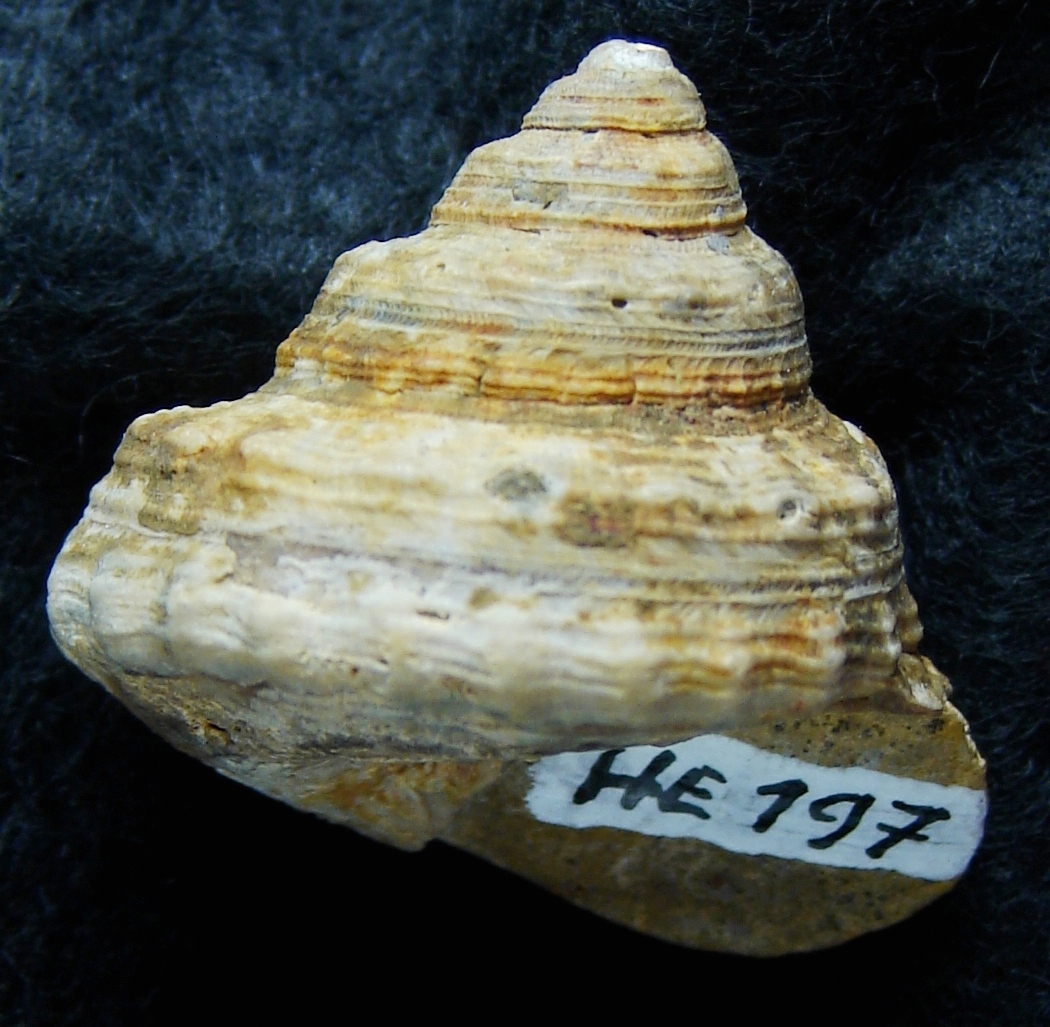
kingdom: Animalia
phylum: Mollusca
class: Gastropoda
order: Pleurotomariida
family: Pleurotomariidae
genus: Pleurotomaria
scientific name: Pleurotomaria cognata
